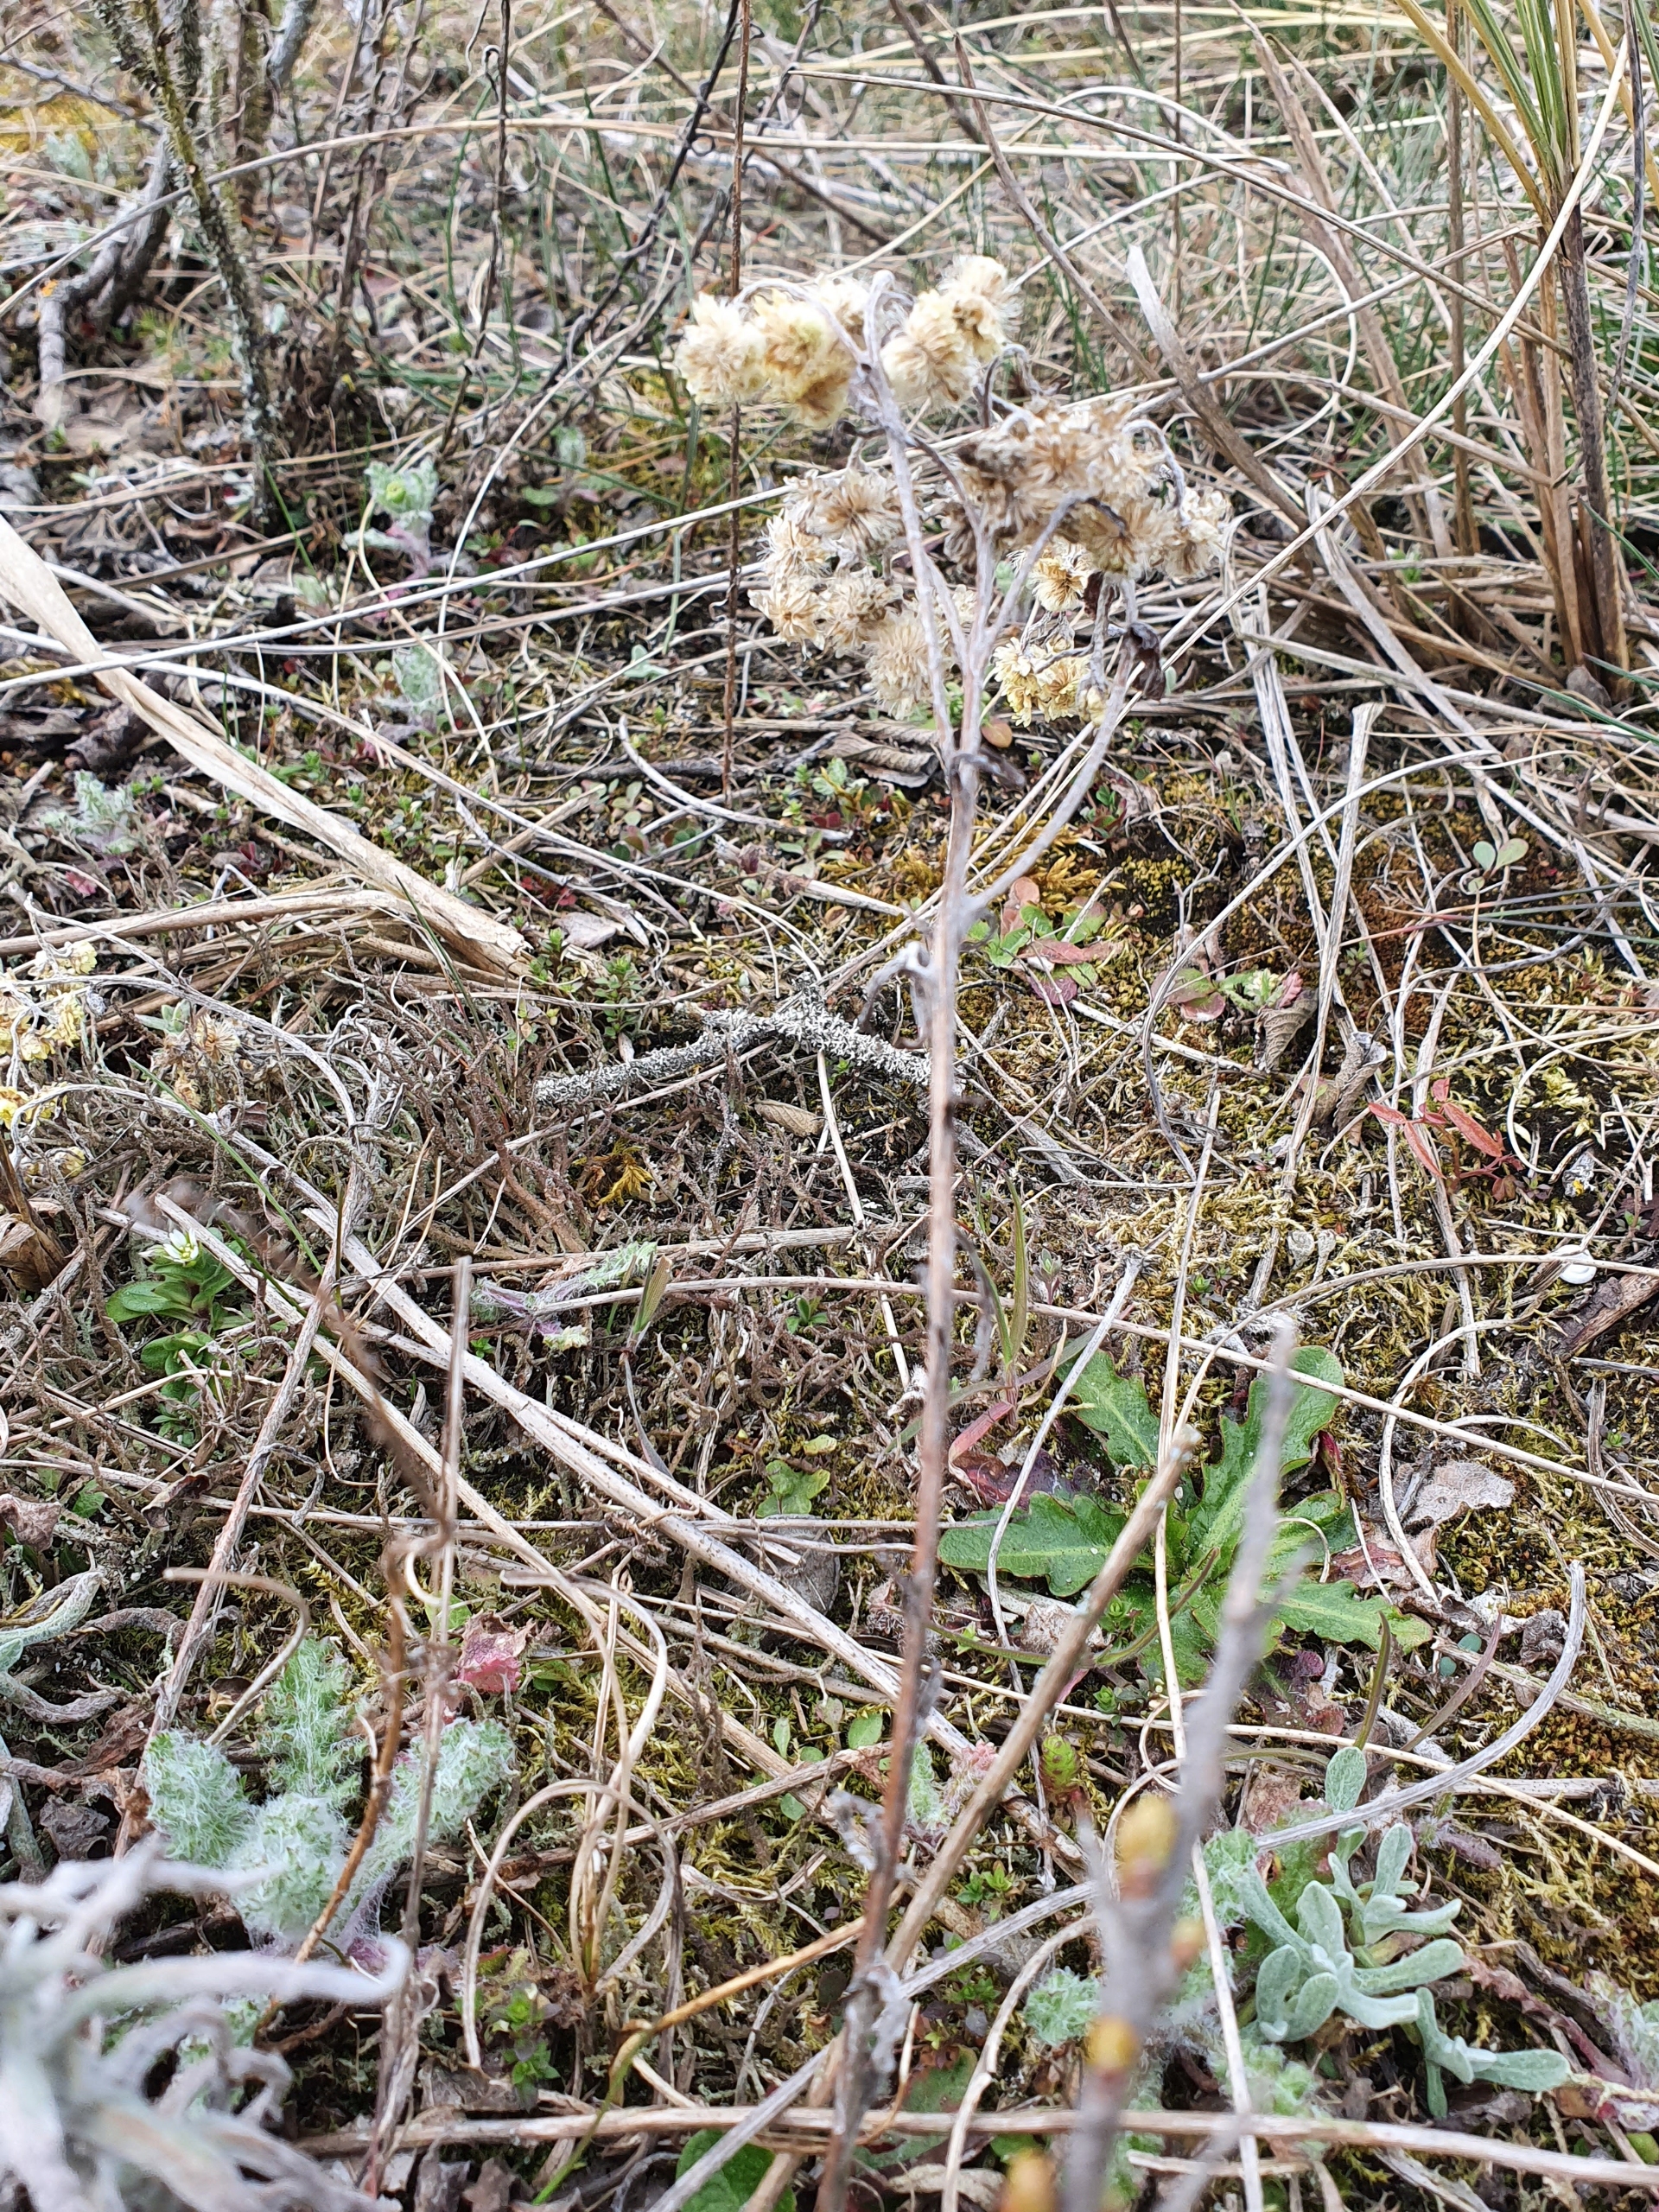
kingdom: Plantae
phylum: Tracheophyta
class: Magnoliopsida
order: Asterales
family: Asteraceae
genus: Helichrysum
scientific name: Helichrysum arenarium
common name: Gul evighedsblomst
